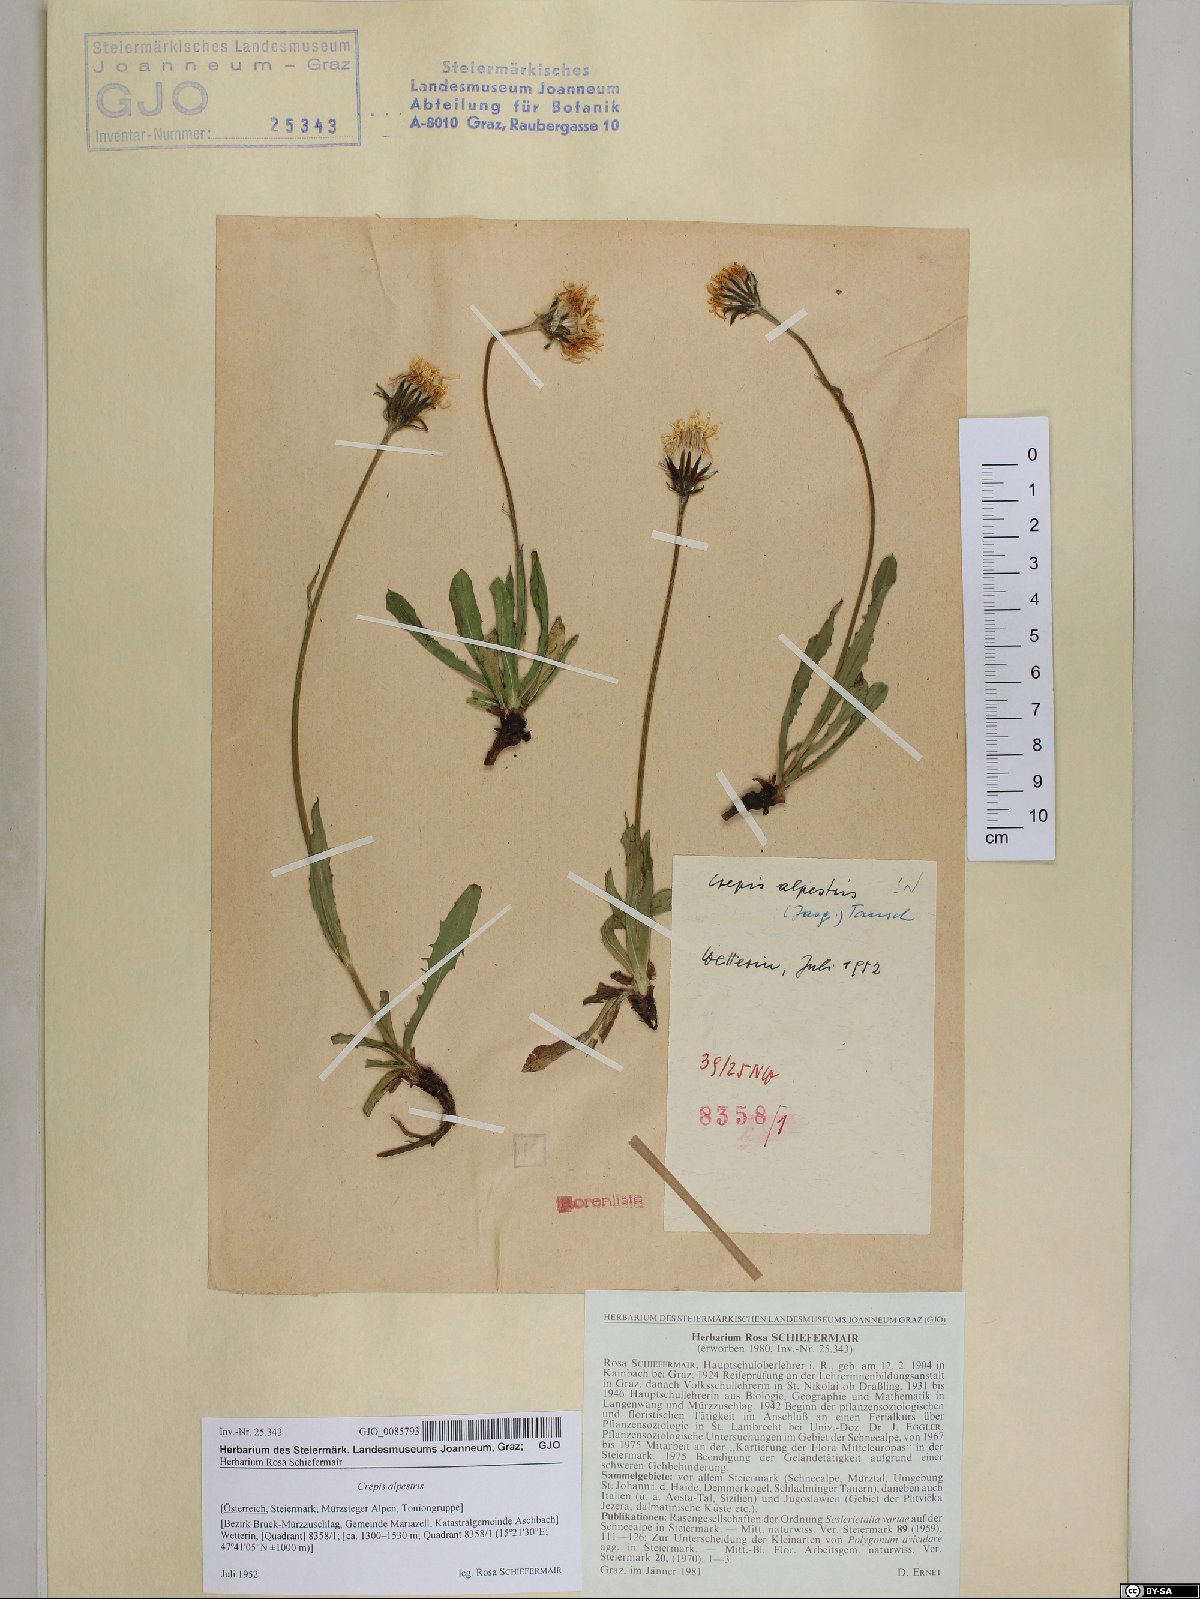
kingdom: Plantae
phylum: Tracheophyta
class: Magnoliopsida
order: Asterales
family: Asteraceae
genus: Crepis
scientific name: Crepis alpestris
